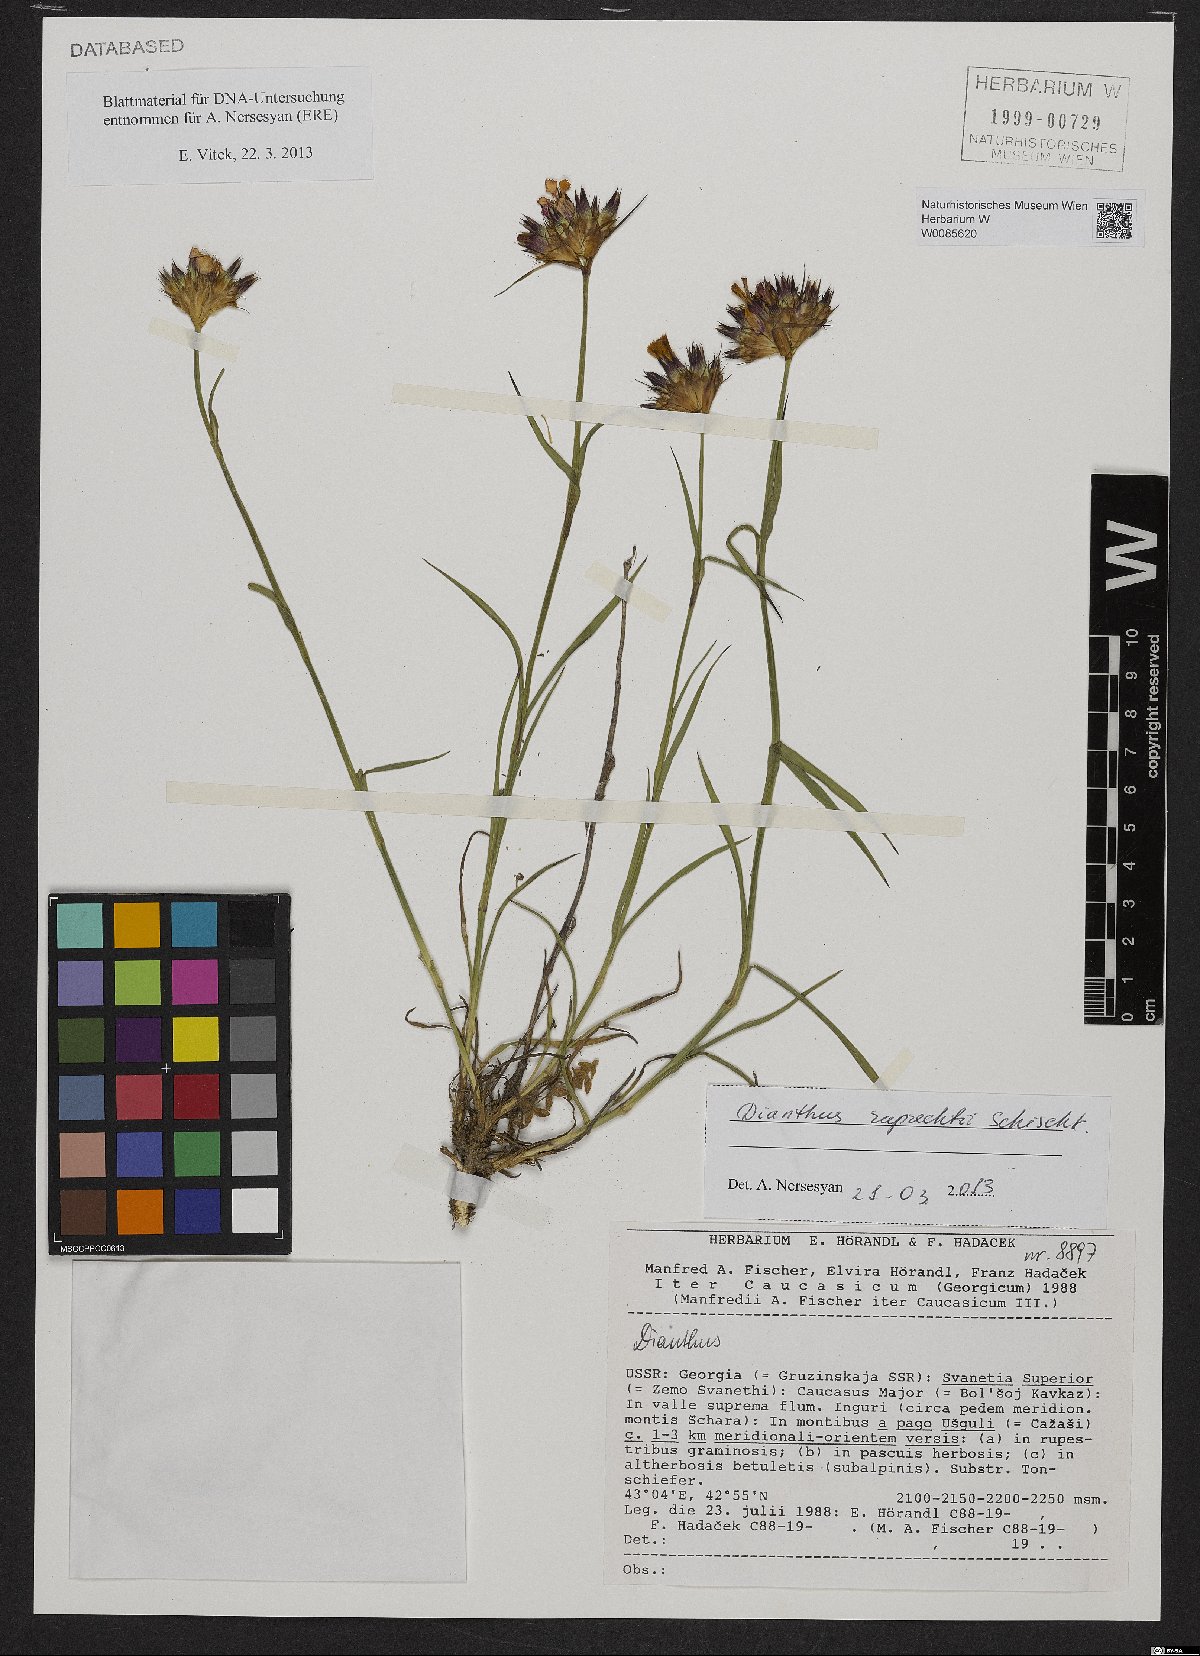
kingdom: Plantae
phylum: Tracheophyta
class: Magnoliopsida
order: Caryophyllales
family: Caryophyllaceae
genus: Dianthus
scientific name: Dianthus ruprechtii
